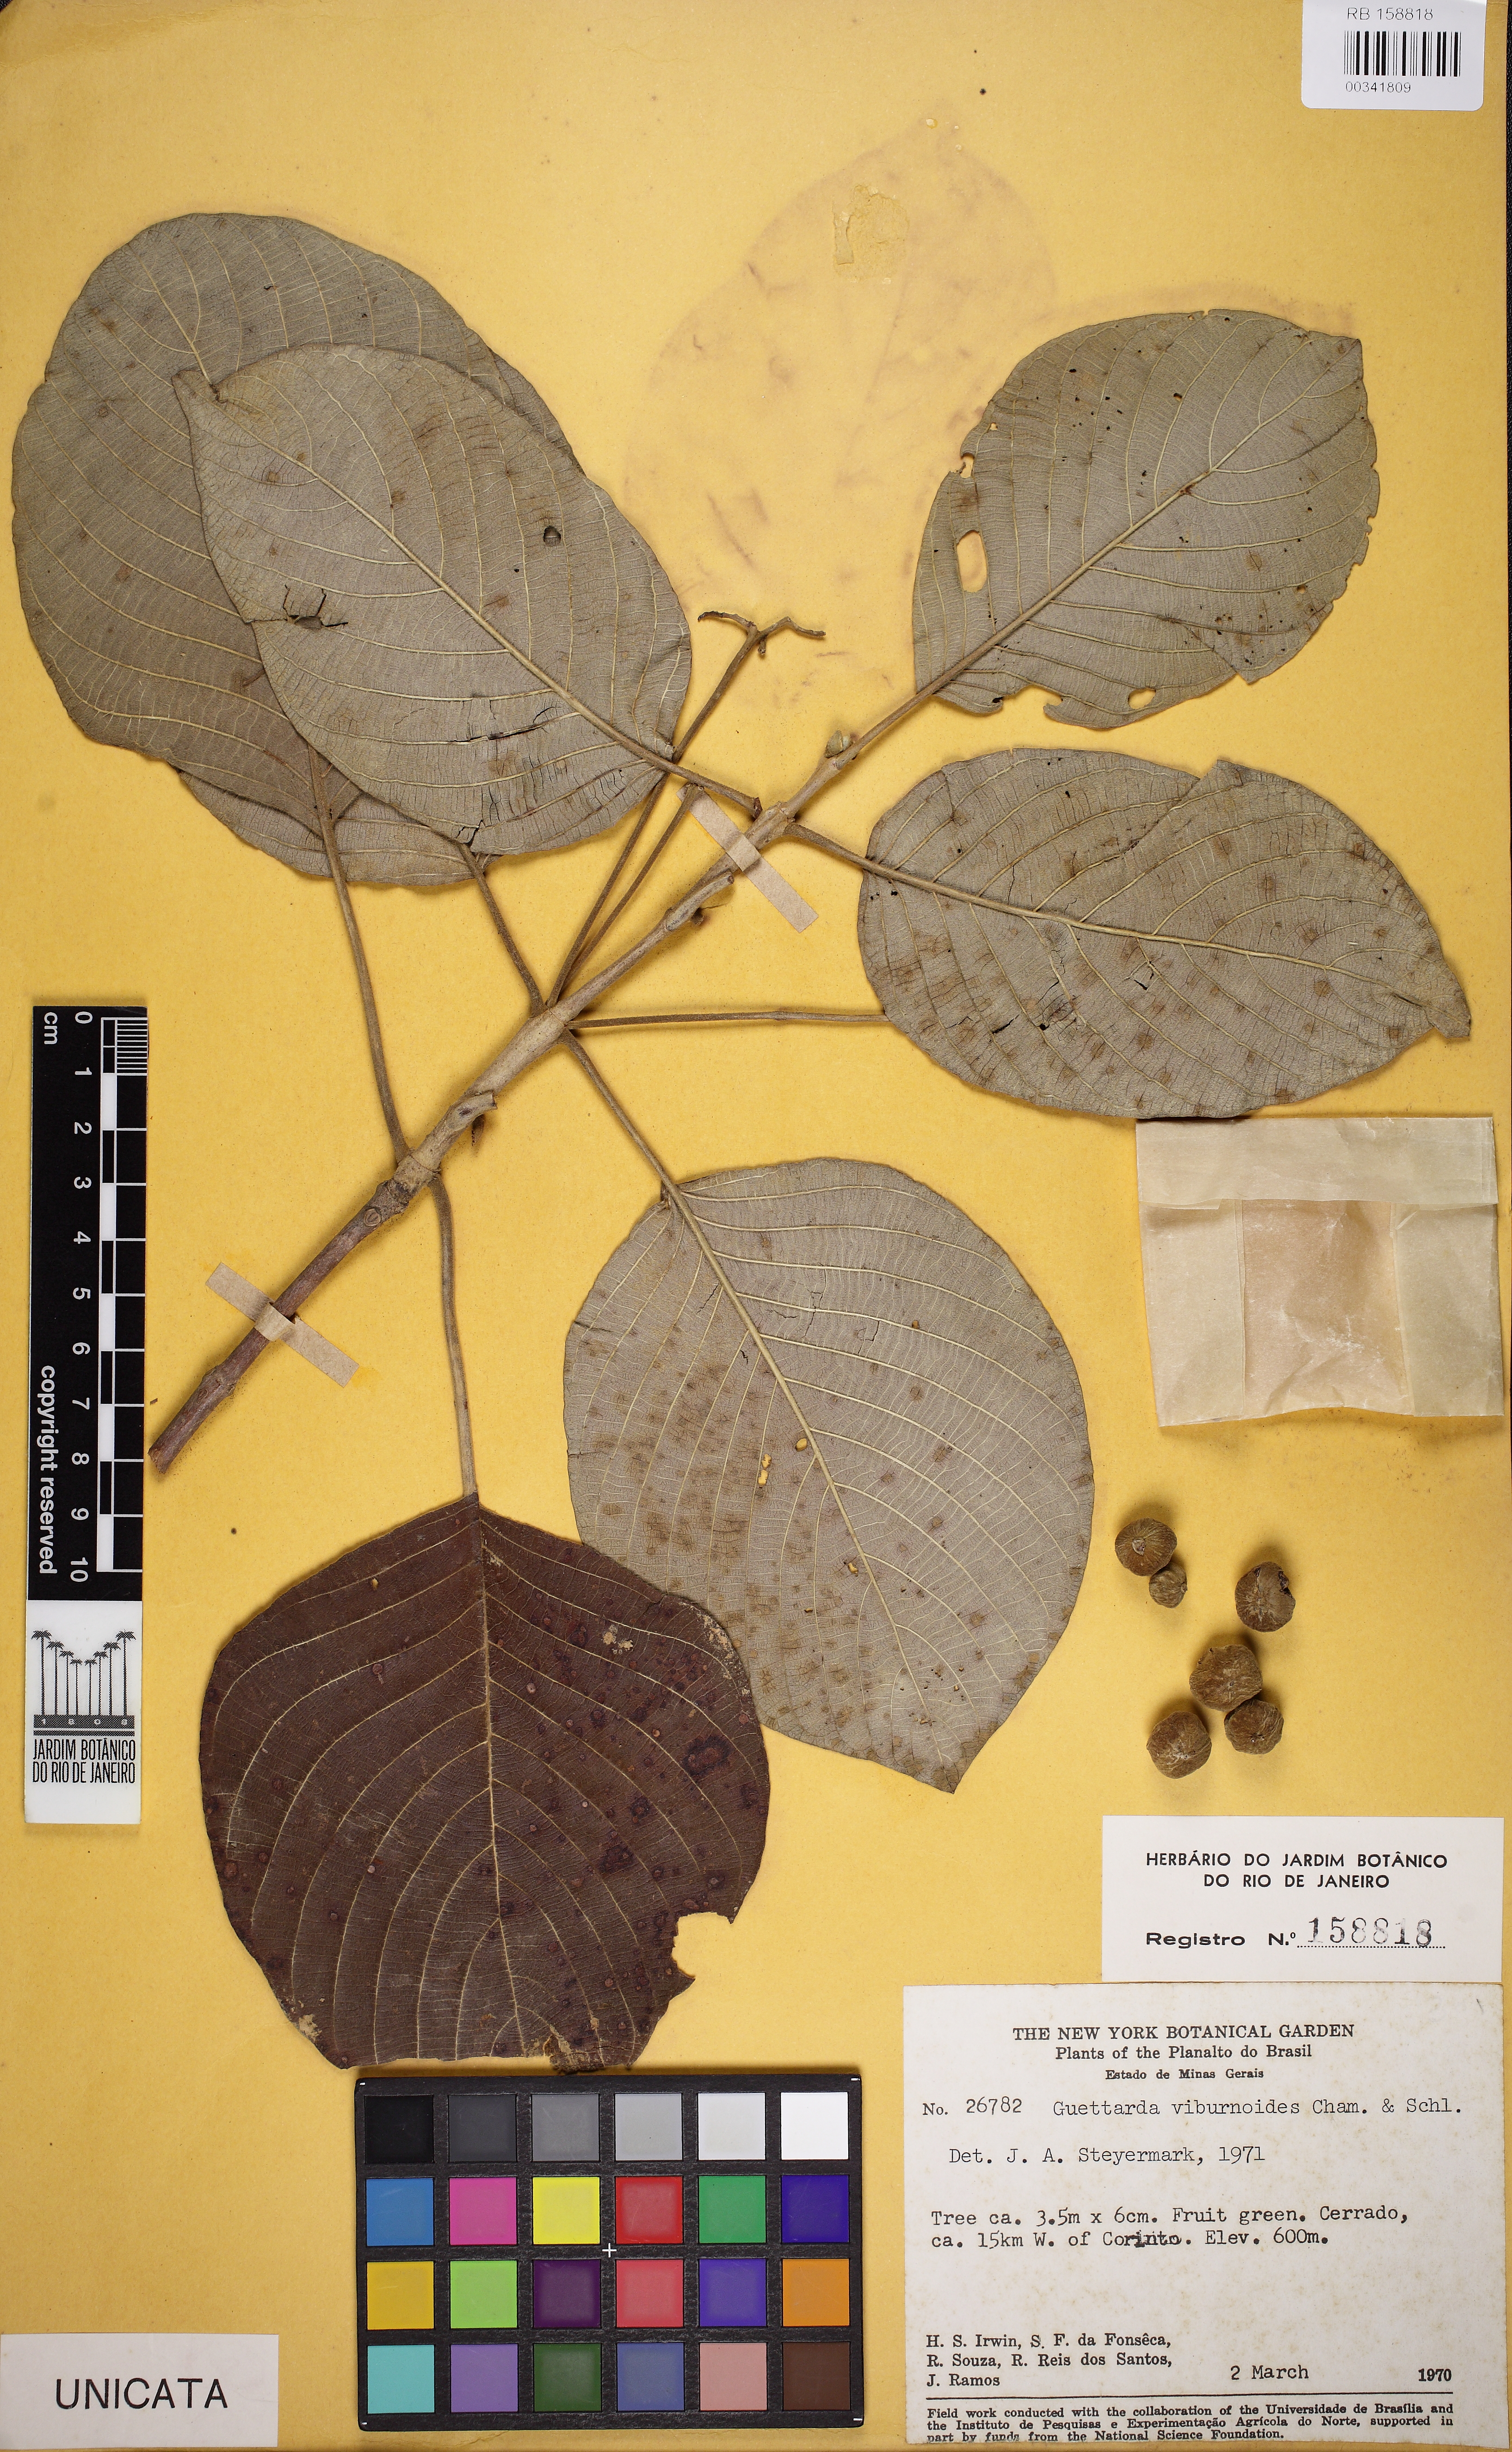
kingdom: Plantae
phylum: Tracheophyta
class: Magnoliopsida
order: Gentianales
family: Rubiaceae
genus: Guettarda
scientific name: Guettarda viburnoides
